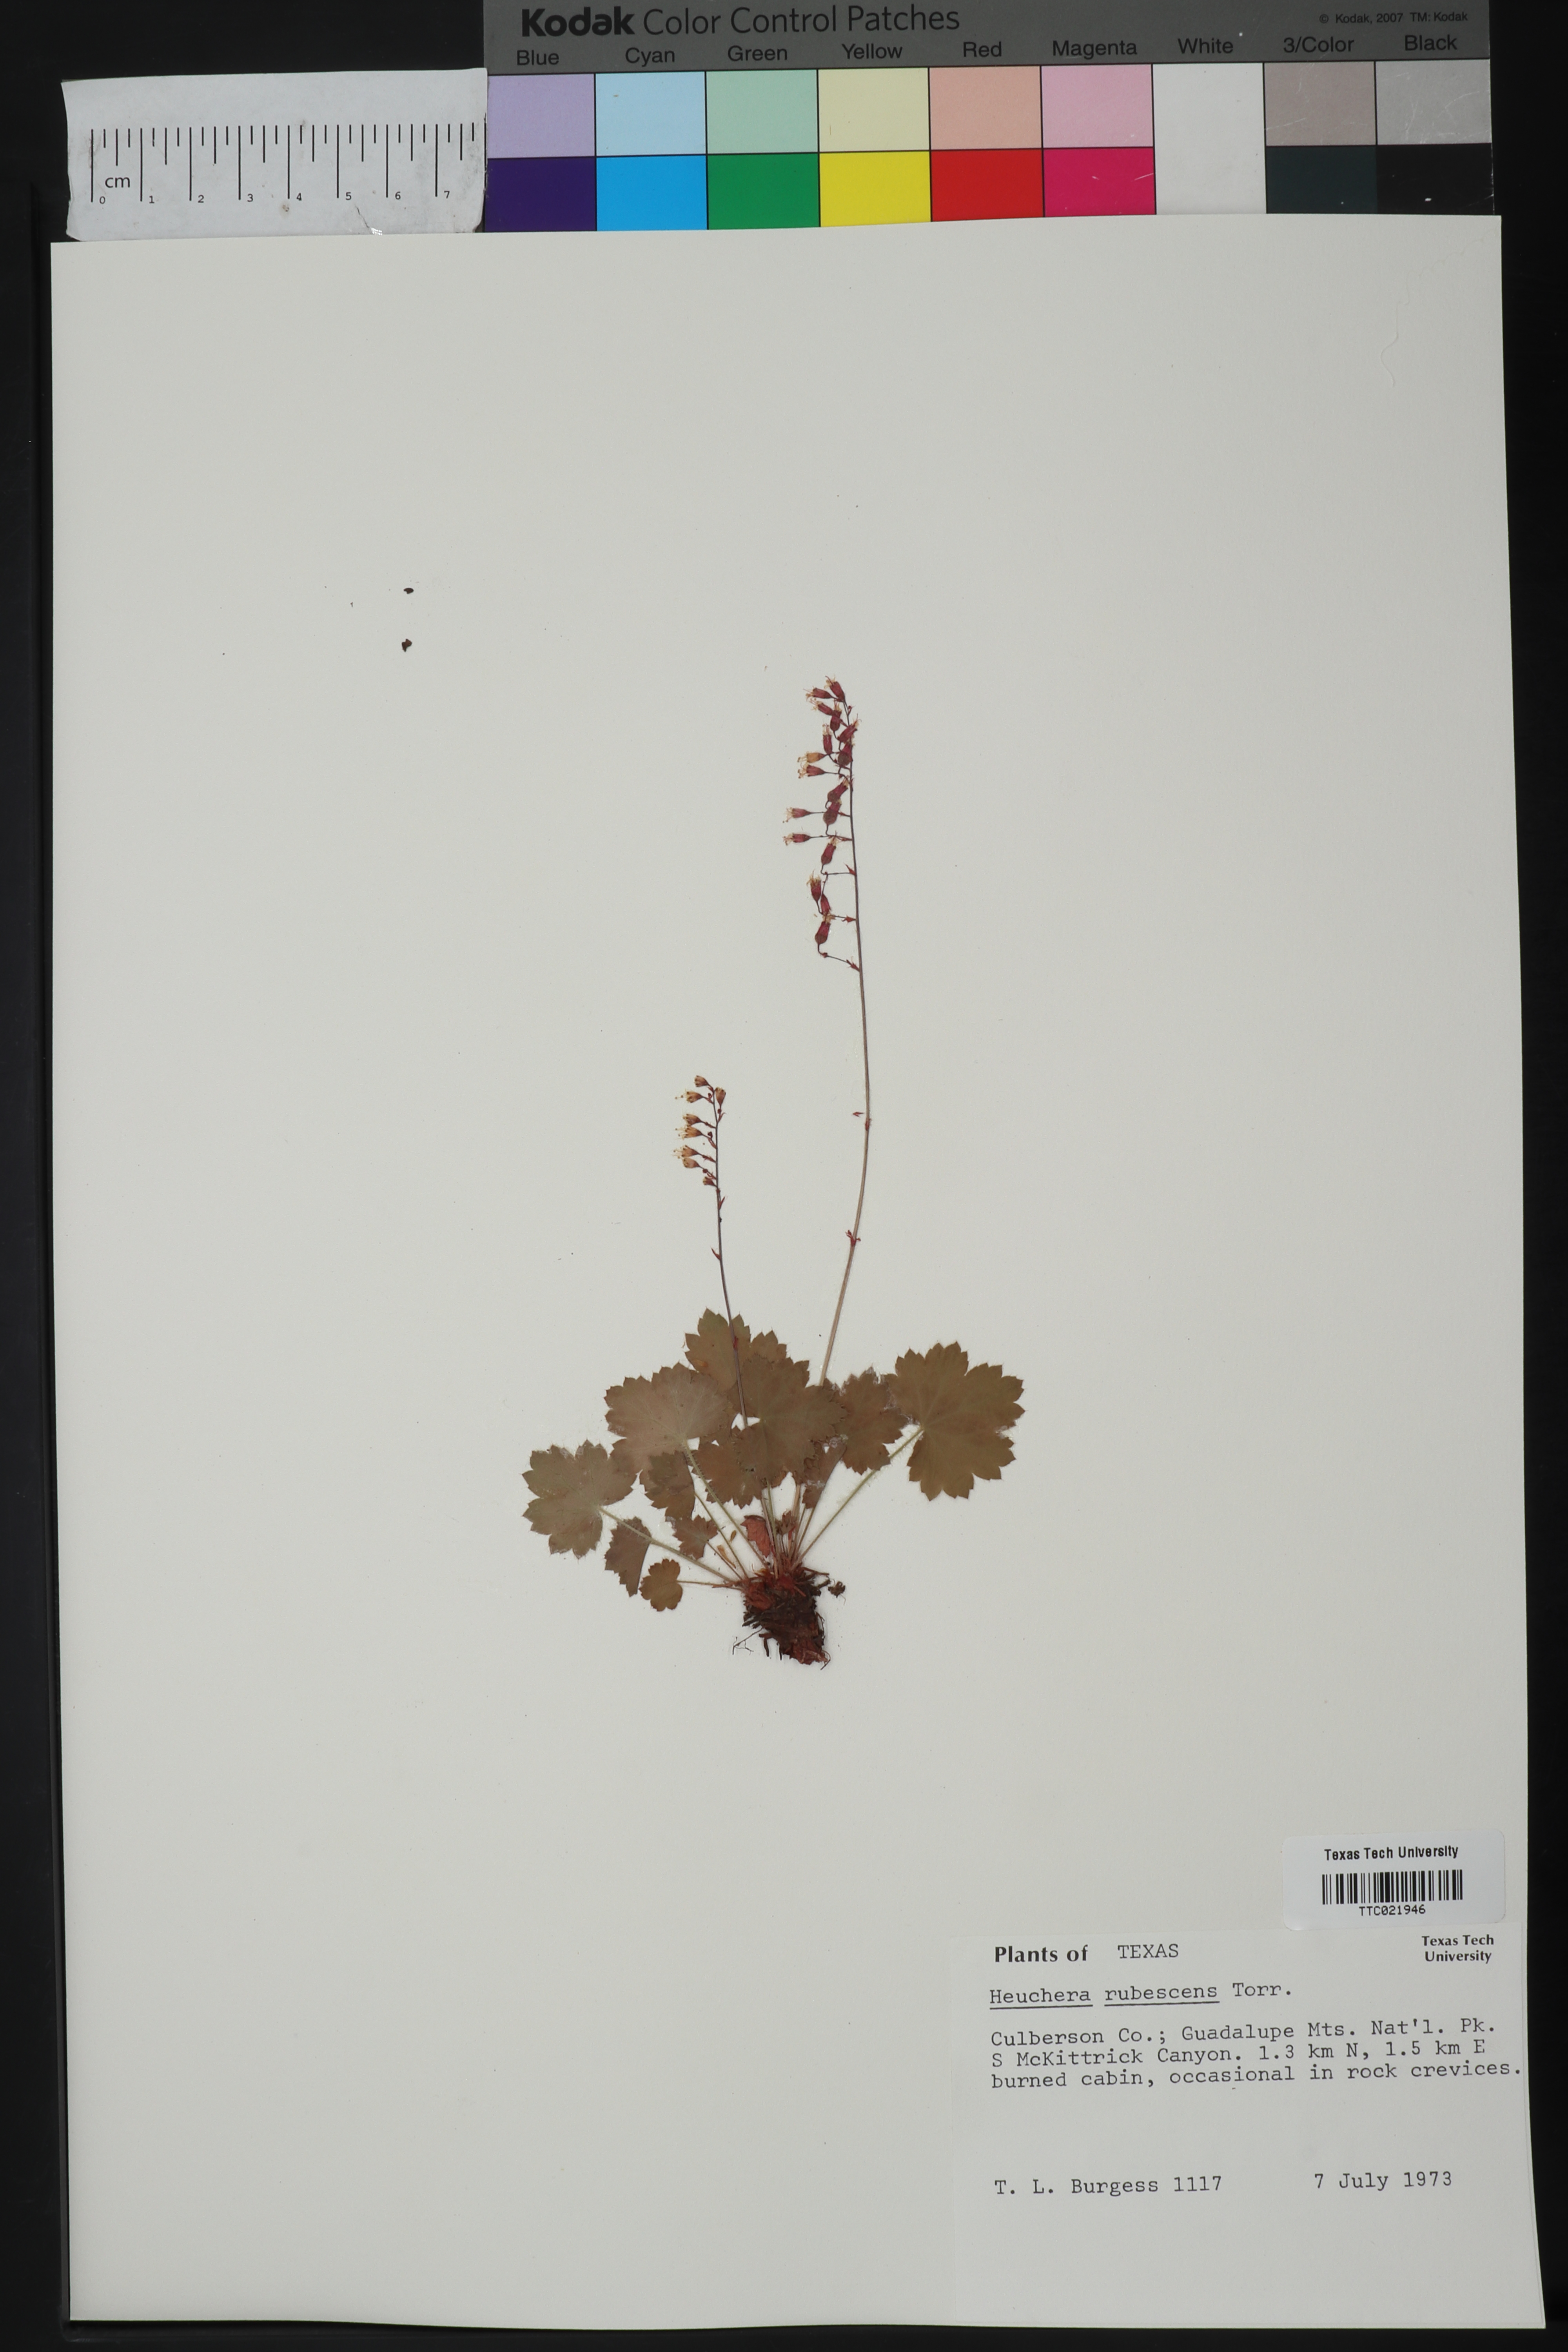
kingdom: Plantae
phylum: Tracheophyta
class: Magnoliopsida
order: Saxifragales
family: Saxifragaceae
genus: Heuchera
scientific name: Heuchera rubescens
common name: Jack-o'the-rocks
